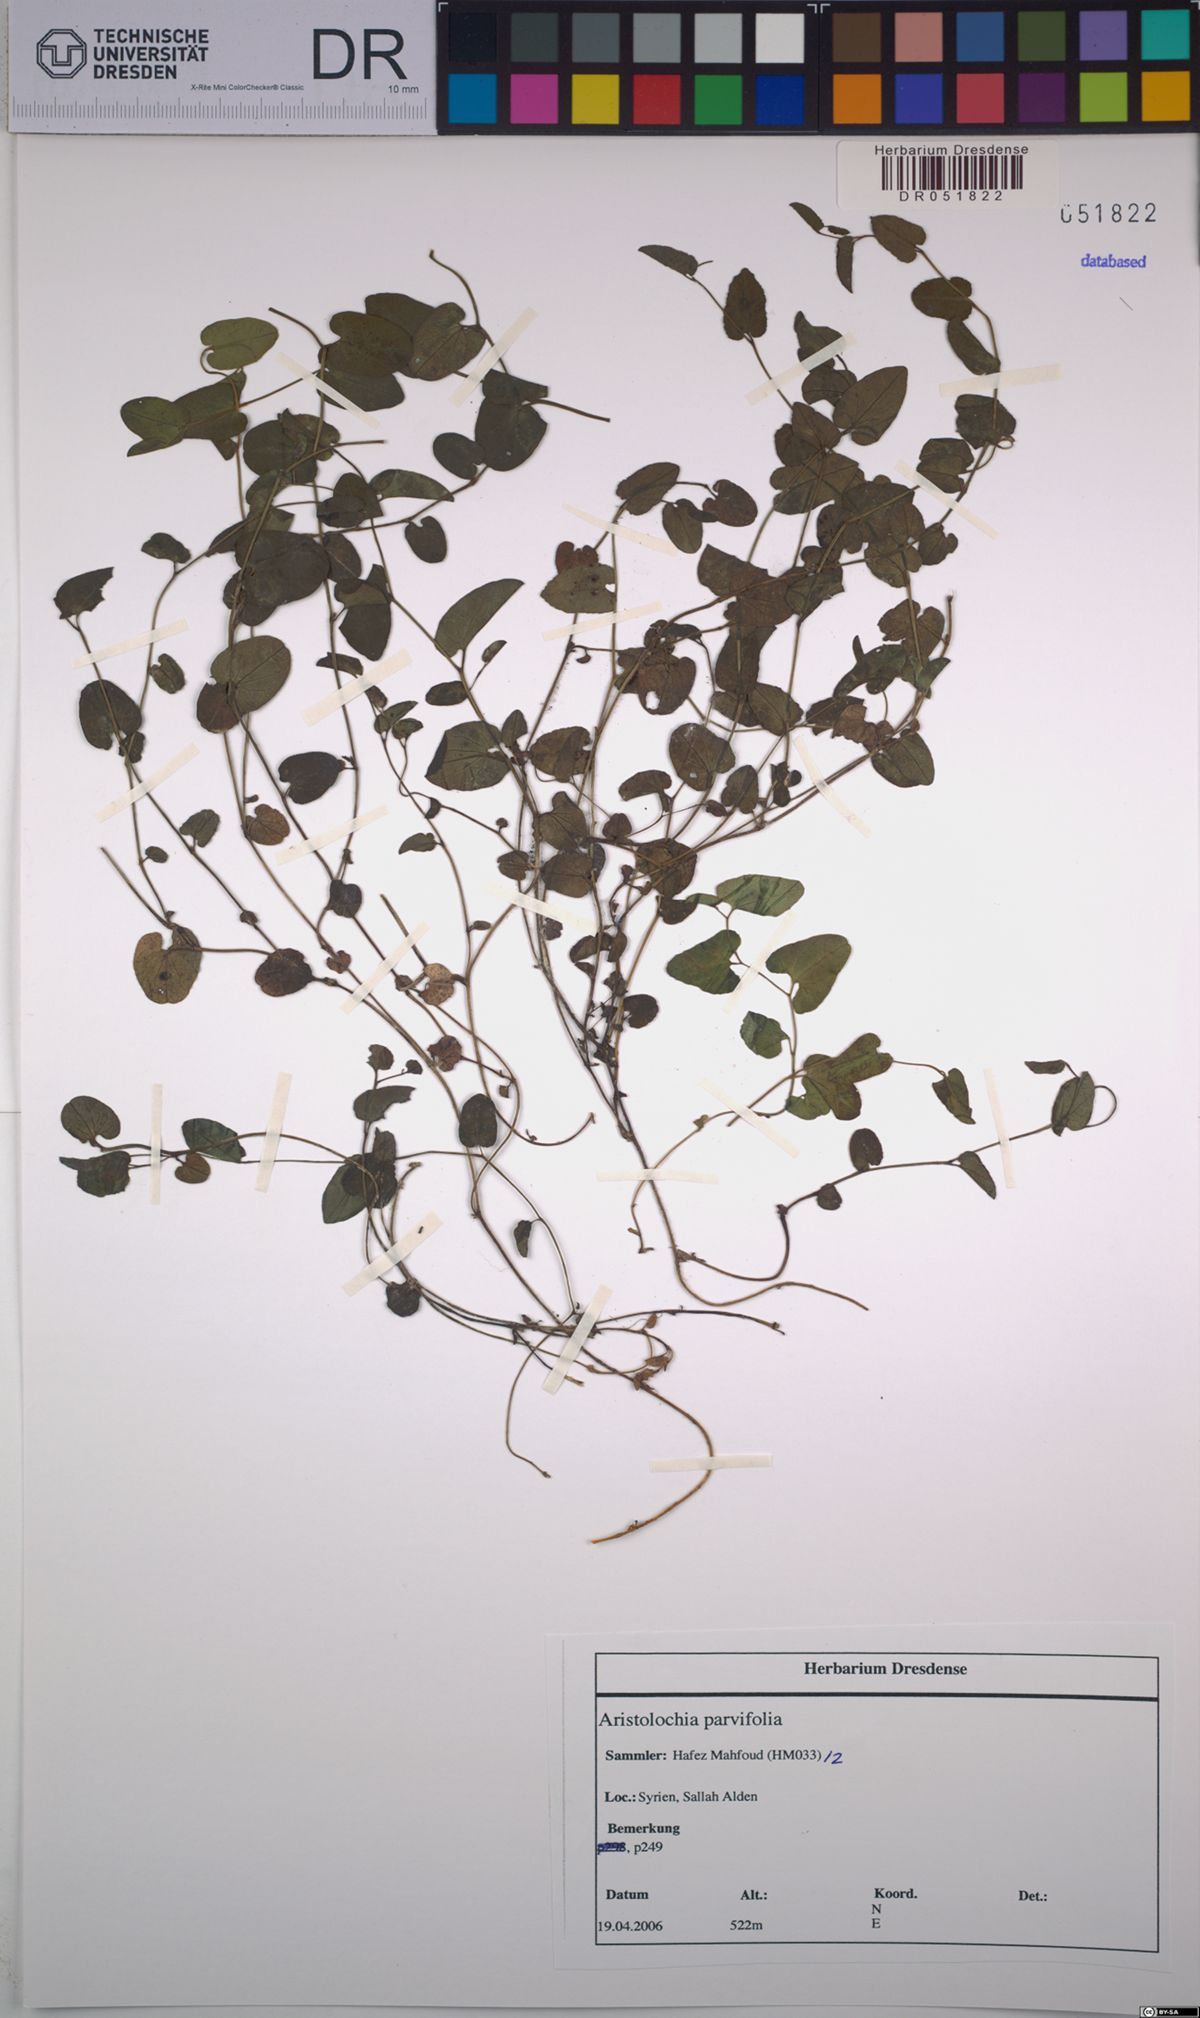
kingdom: Plantae
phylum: Tracheophyta
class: Magnoliopsida
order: Piperales
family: Aristolochiaceae
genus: Aristolochia
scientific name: Aristolochia parvifolia
